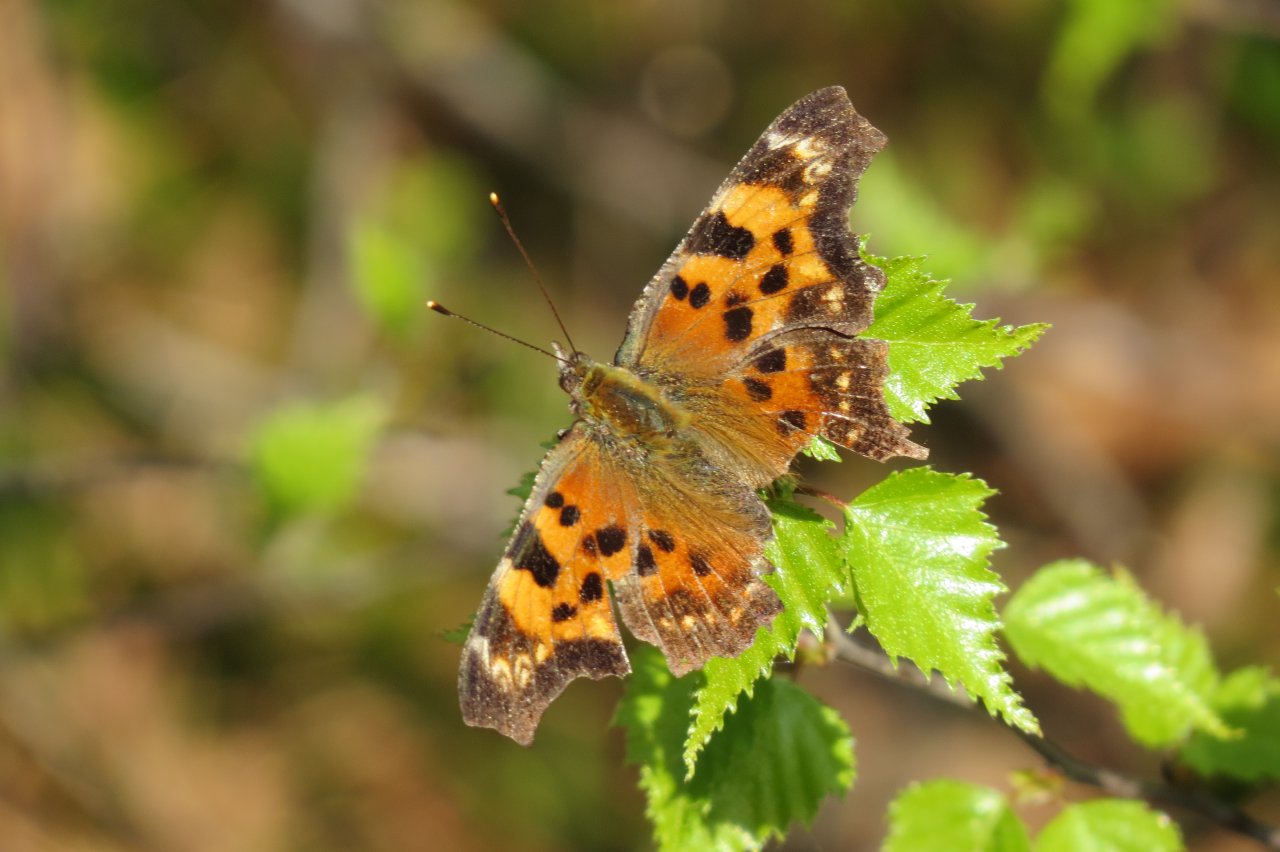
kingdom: Animalia
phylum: Arthropoda
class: Insecta
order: Lepidoptera
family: Nymphalidae
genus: Polygonia
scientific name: Polygonia comma
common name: Eastern Comma
